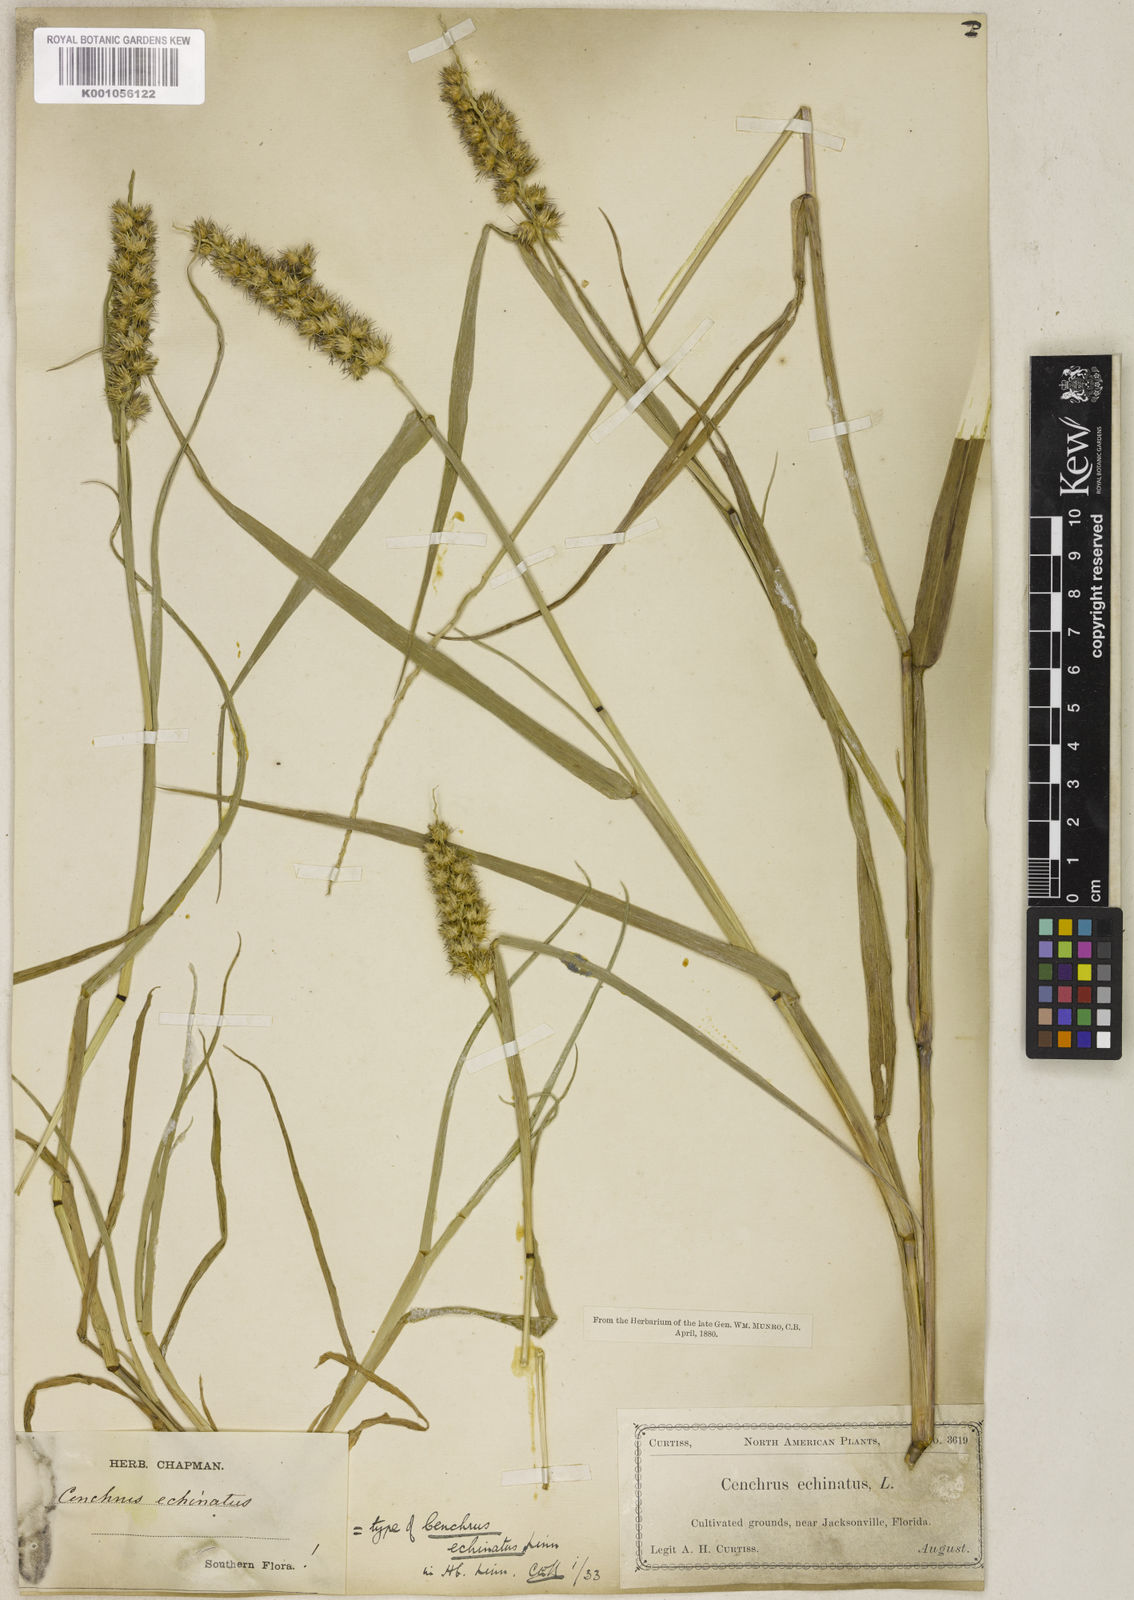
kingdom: Plantae
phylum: Tracheophyta
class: Liliopsida
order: Poales
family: Poaceae
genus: Cenchrus
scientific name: Cenchrus echinatus
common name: Southern sandbur
